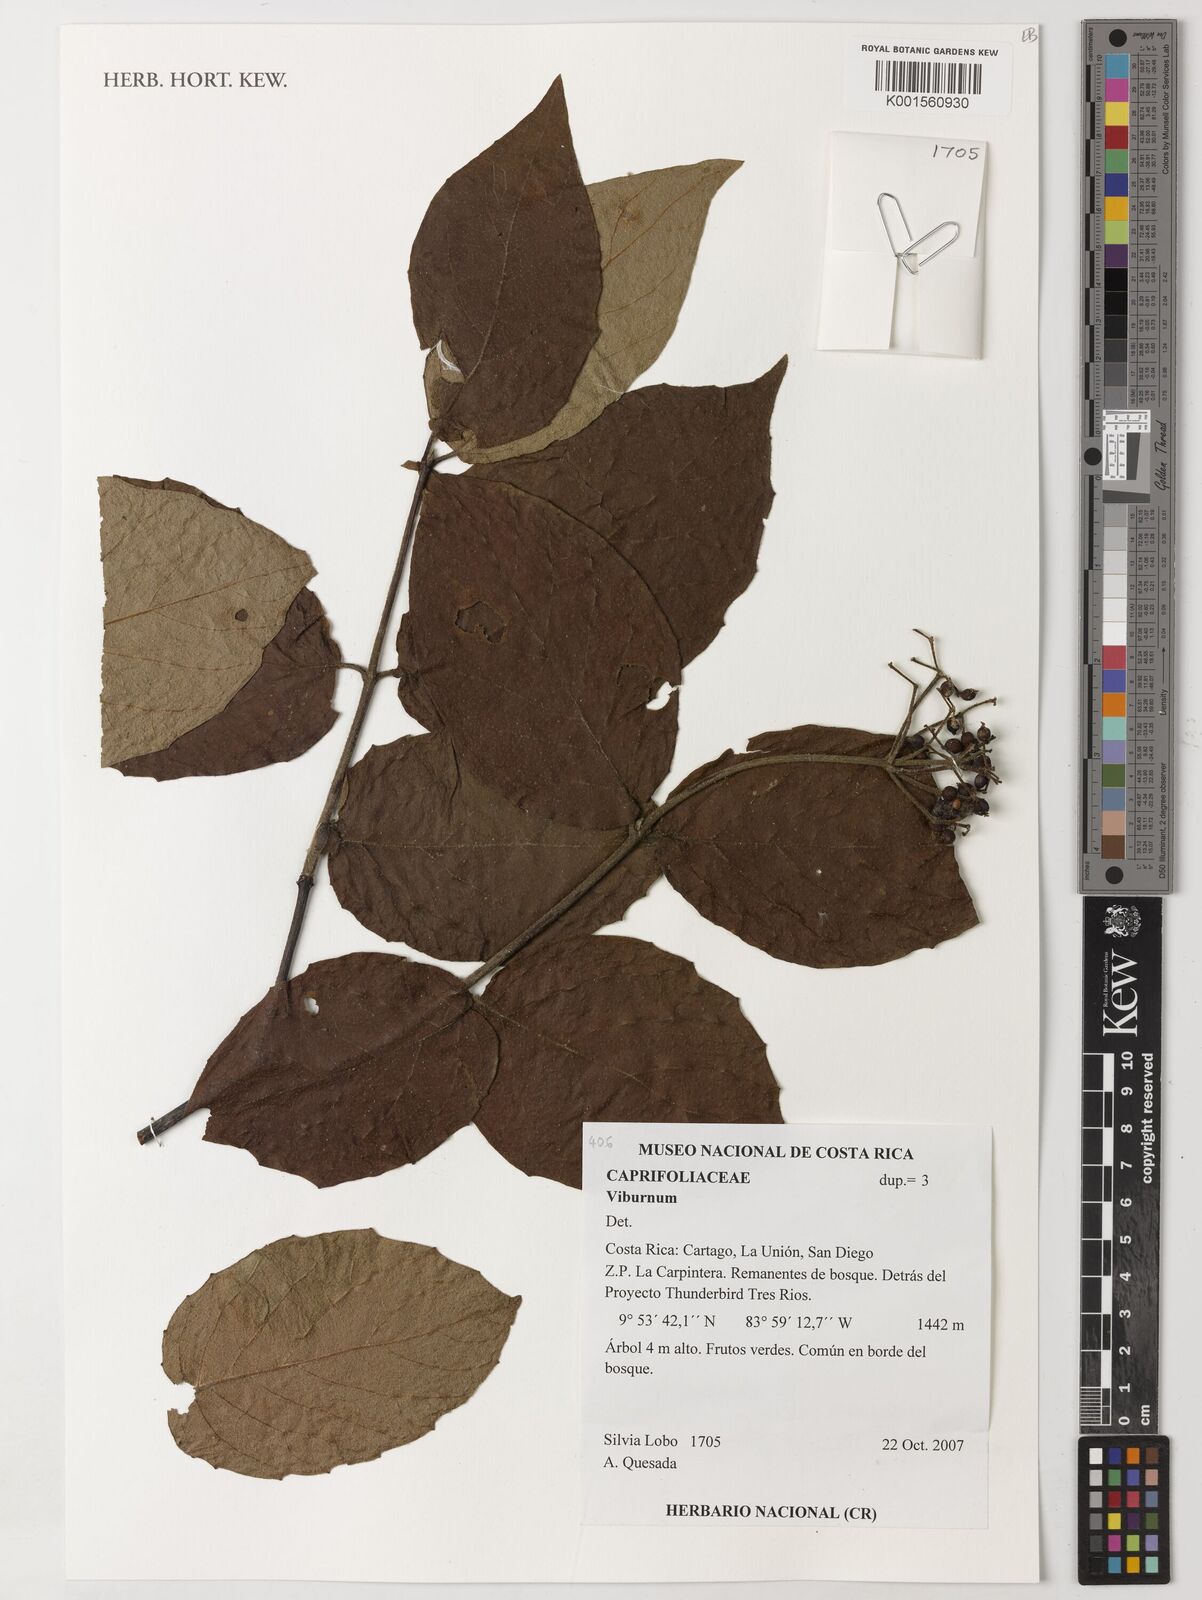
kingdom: Plantae
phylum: Tracheophyta
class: Magnoliopsida
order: Dipsacales
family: Viburnaceae
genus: Viburnum
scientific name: Viburnum
